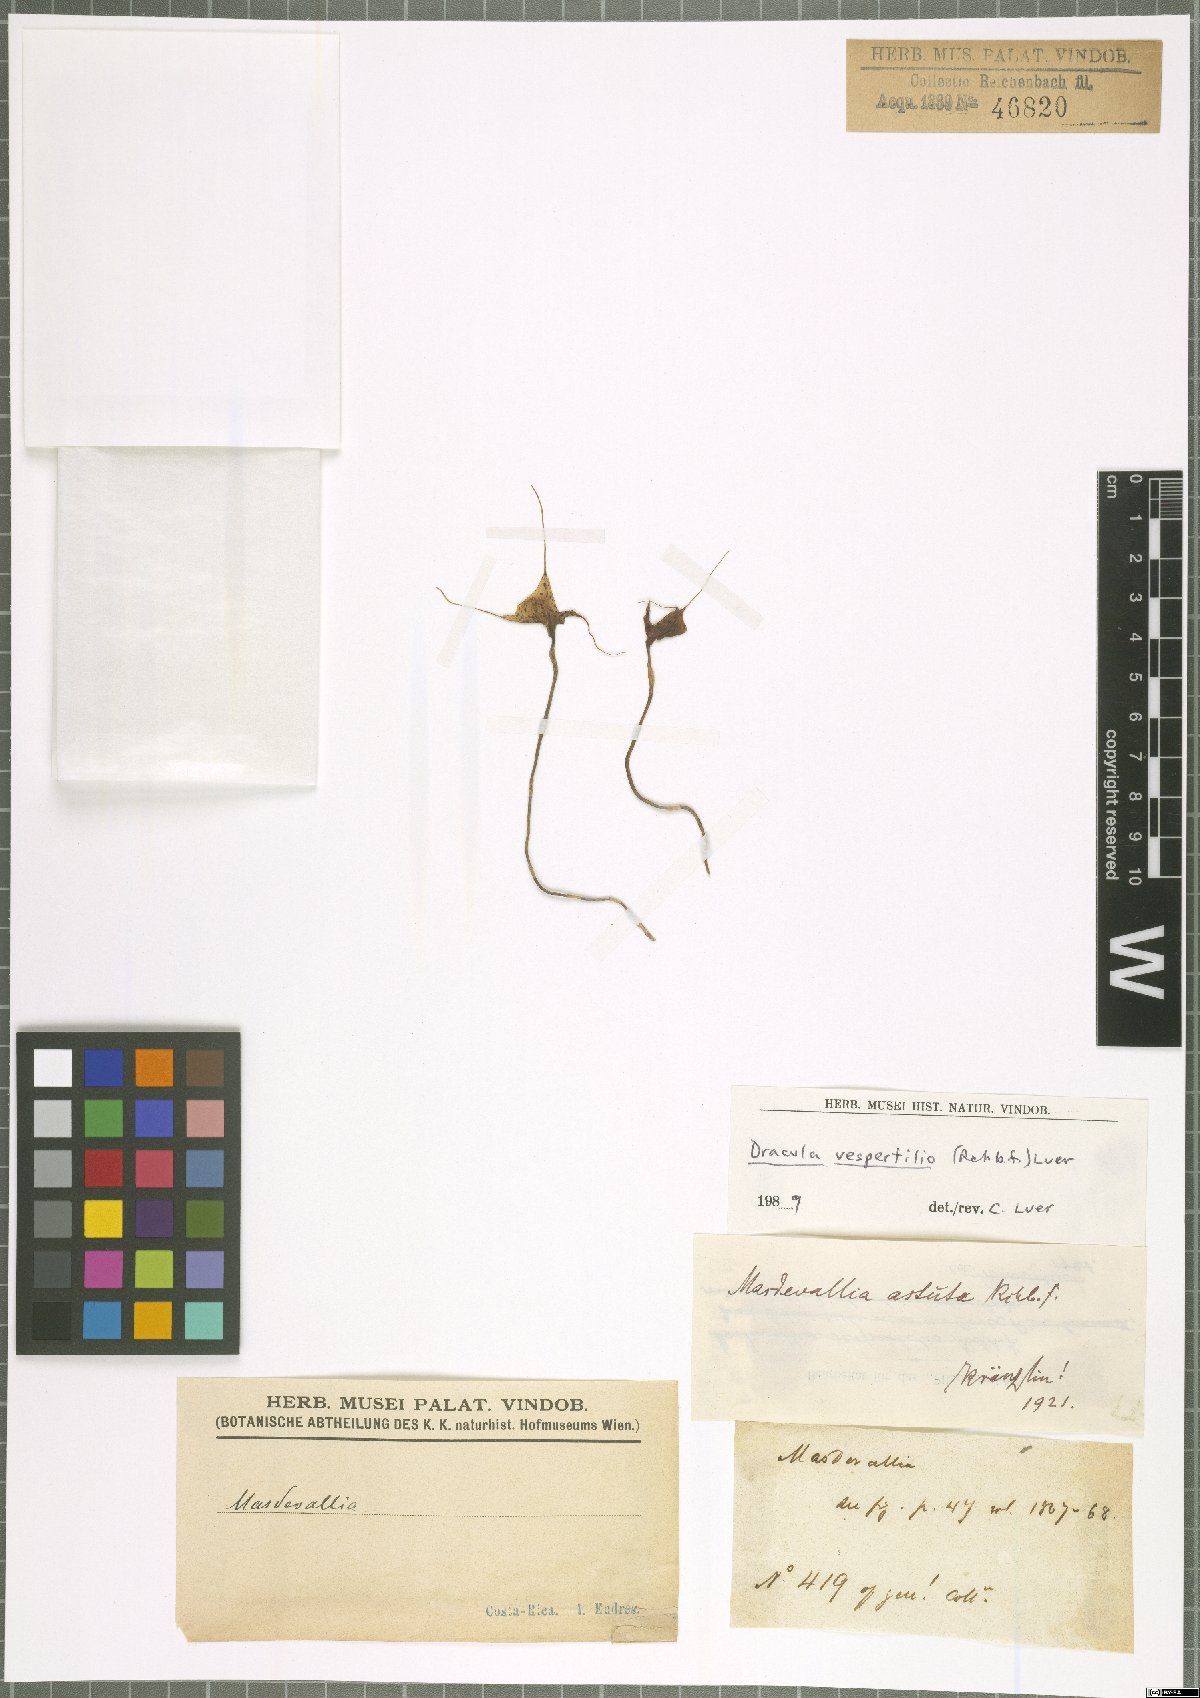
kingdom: Plantae
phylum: Tracheophyta
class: Liliopsida
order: Asparagales
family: Orchidaceae
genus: Dracula
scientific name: Dracula vespertilio
